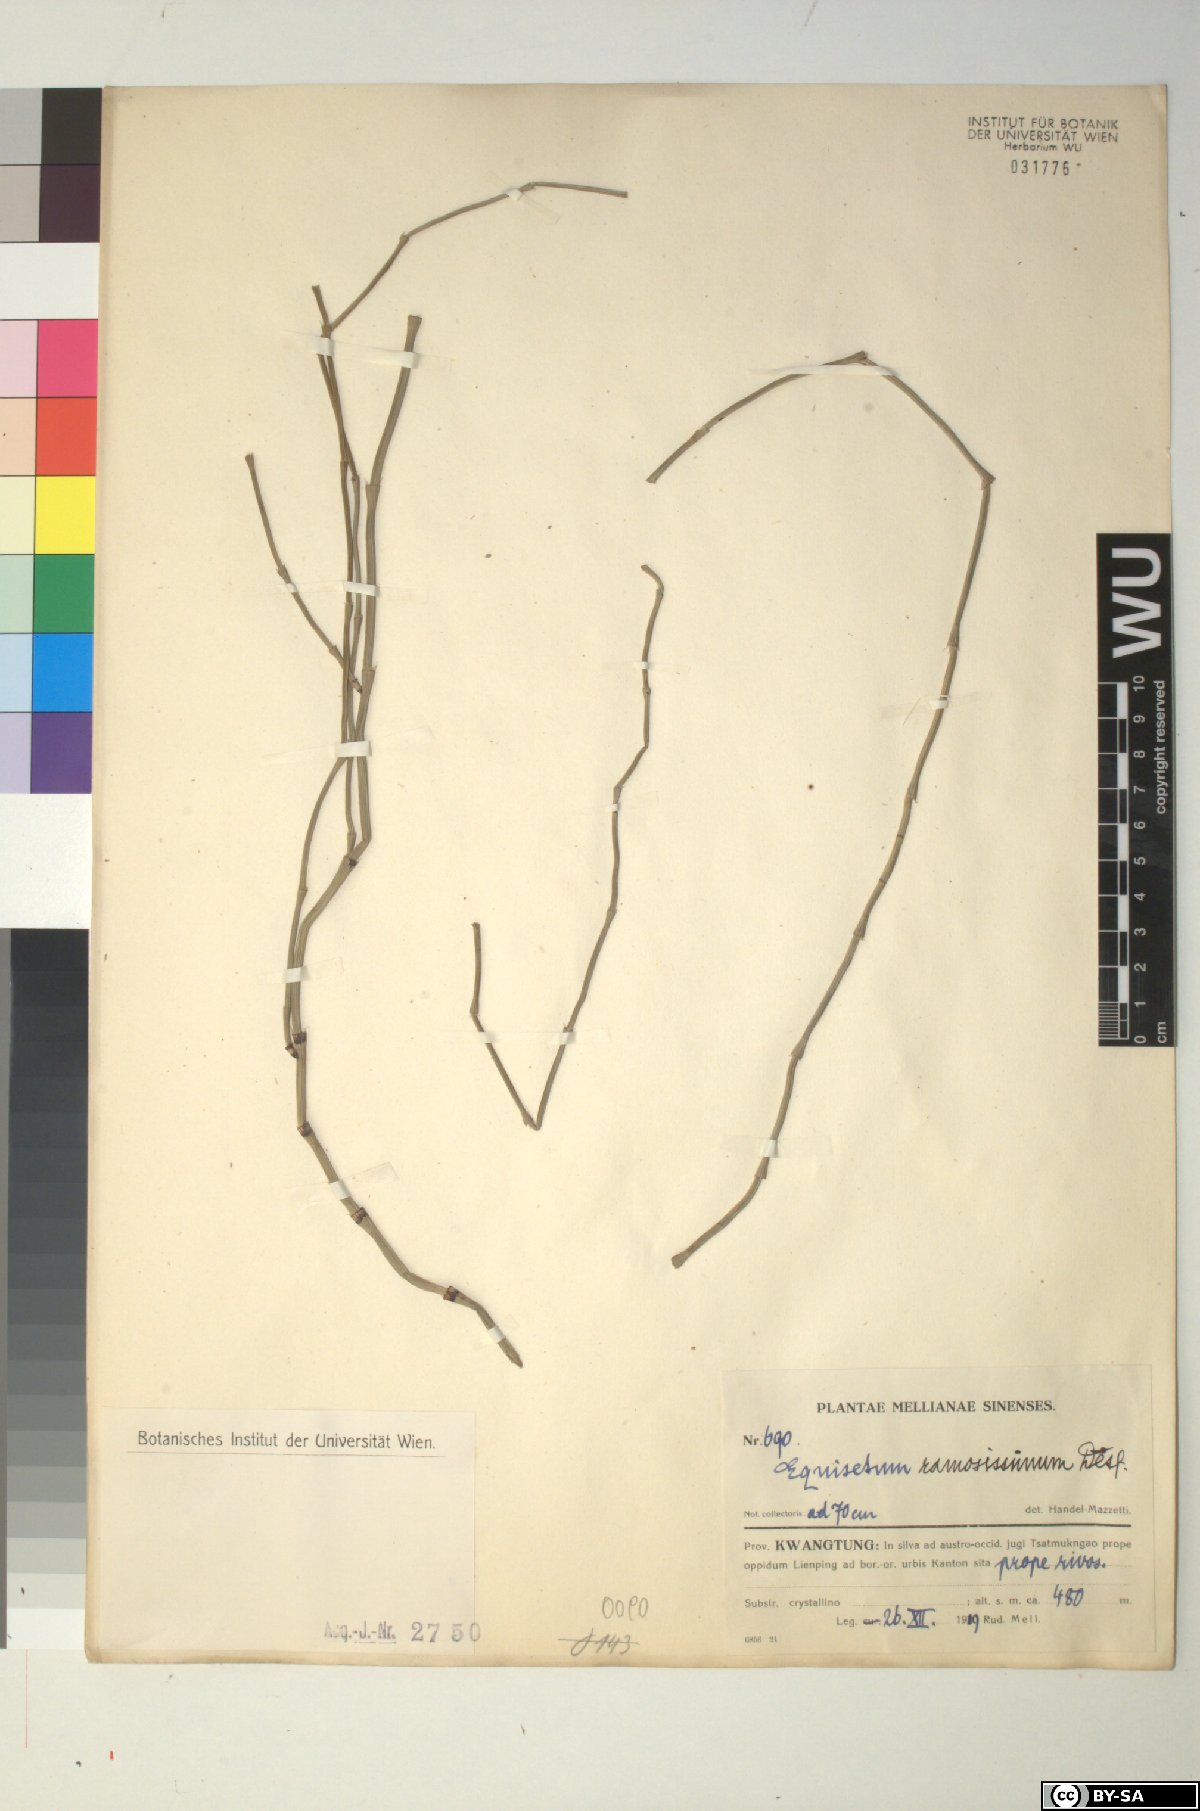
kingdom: Plantae
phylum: Tracheophyta
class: Polypodiopsida
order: Equisetales
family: Equisetaceae
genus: Equisetum
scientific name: Equisetum ramosissimum
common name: Branched horsetail
